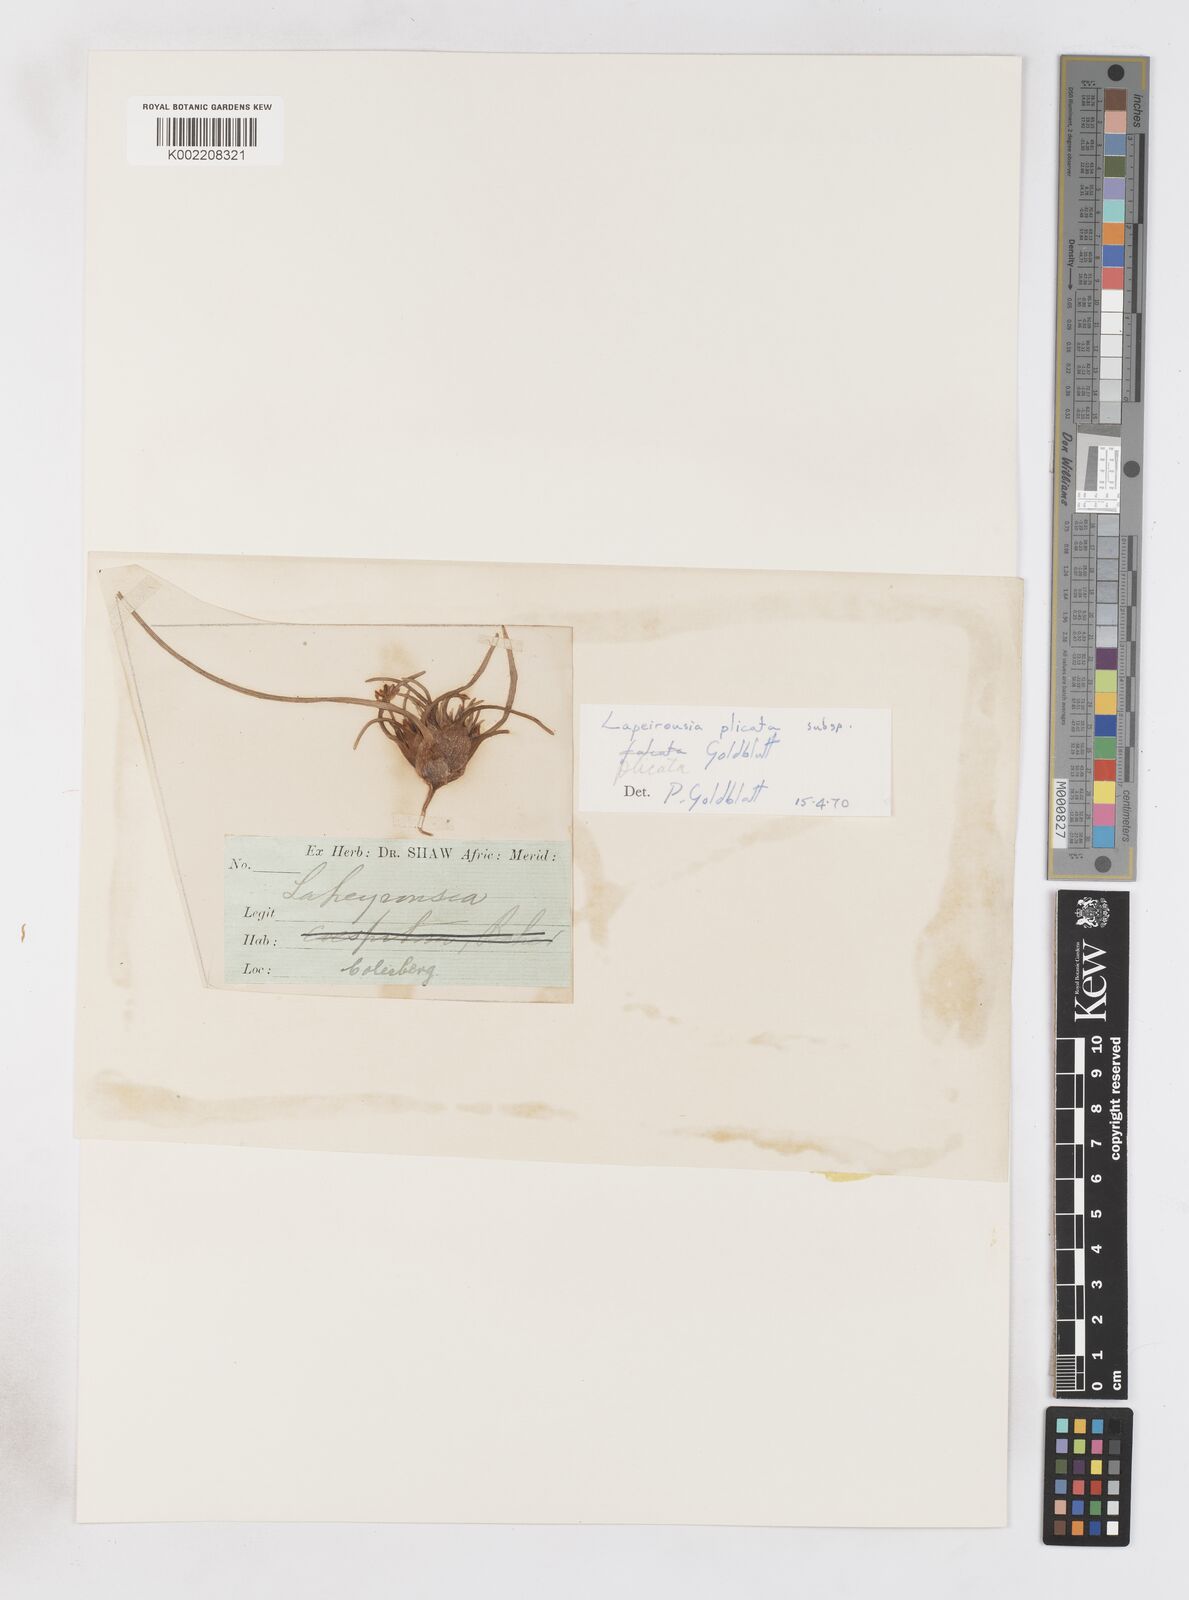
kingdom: Plantae
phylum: Tracheophyta
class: Liliopsida
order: Asparagales
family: Iridaceae
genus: Lapeirousia
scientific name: Lapeirousia plicata
